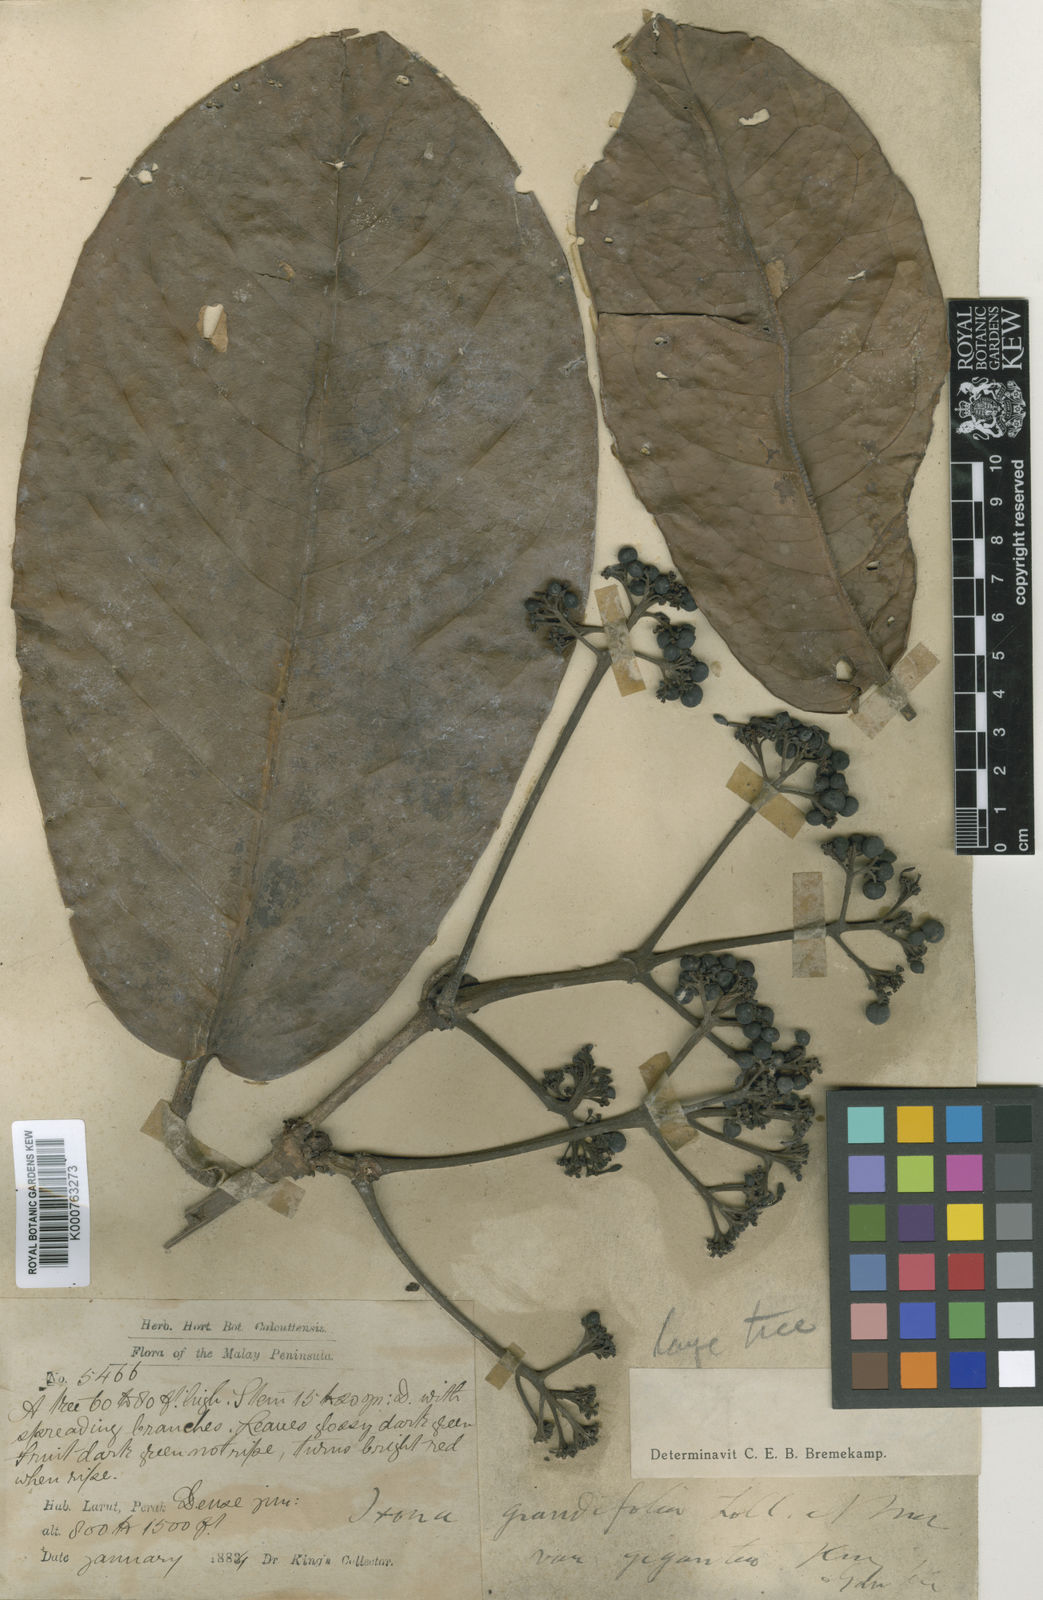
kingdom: Plantae
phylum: Tracheophyta
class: Magnoliopsida
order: Gentianales
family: Rubiaceae
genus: Ixora
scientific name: Ixora grandifolia
